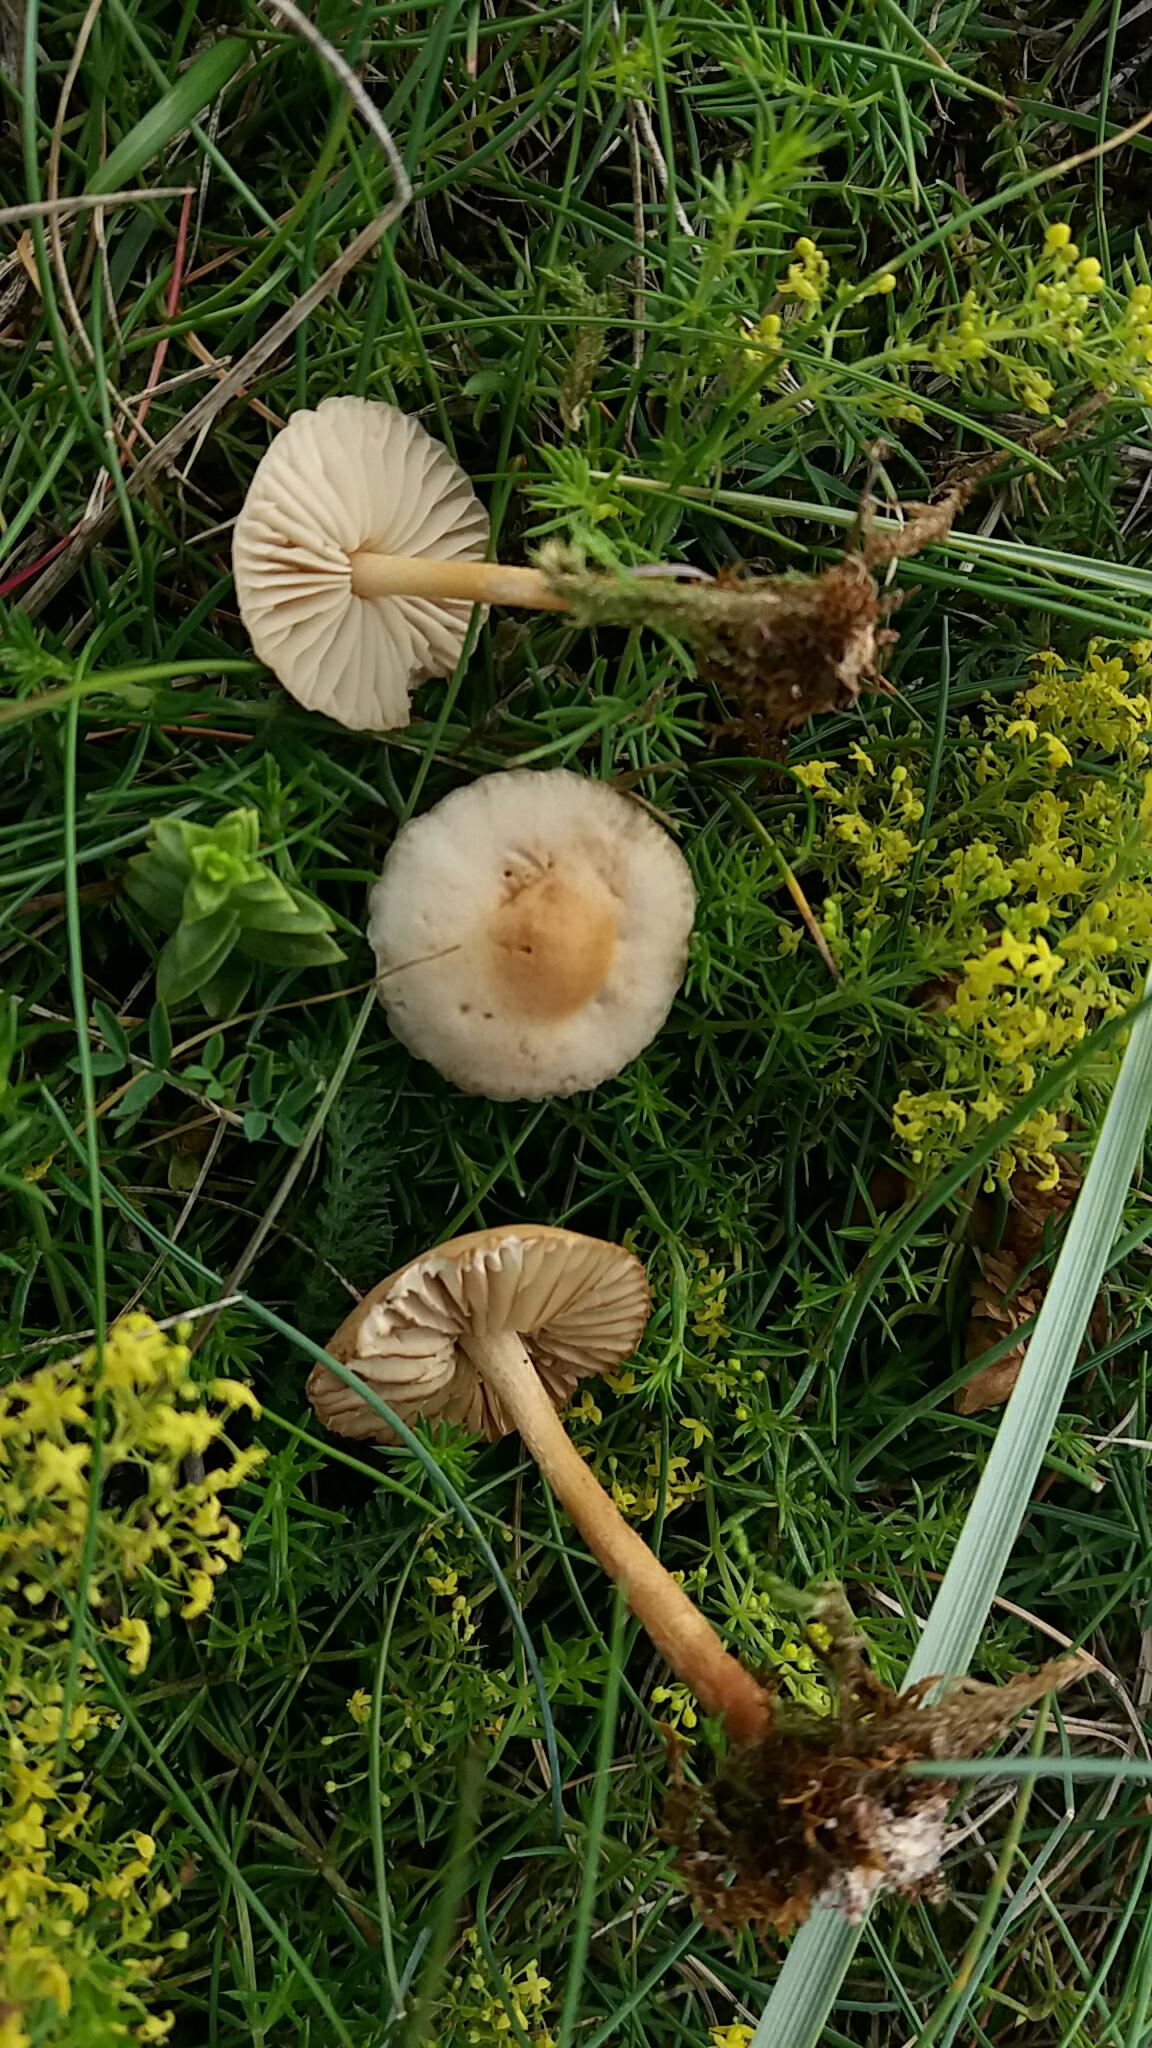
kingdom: Fungi
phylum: Basidiomycota
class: Agaricomycetes
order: Agaricales
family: Marasmiaceae
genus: Marasmius
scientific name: Marasmius oreades
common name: elledans-bruskhat
